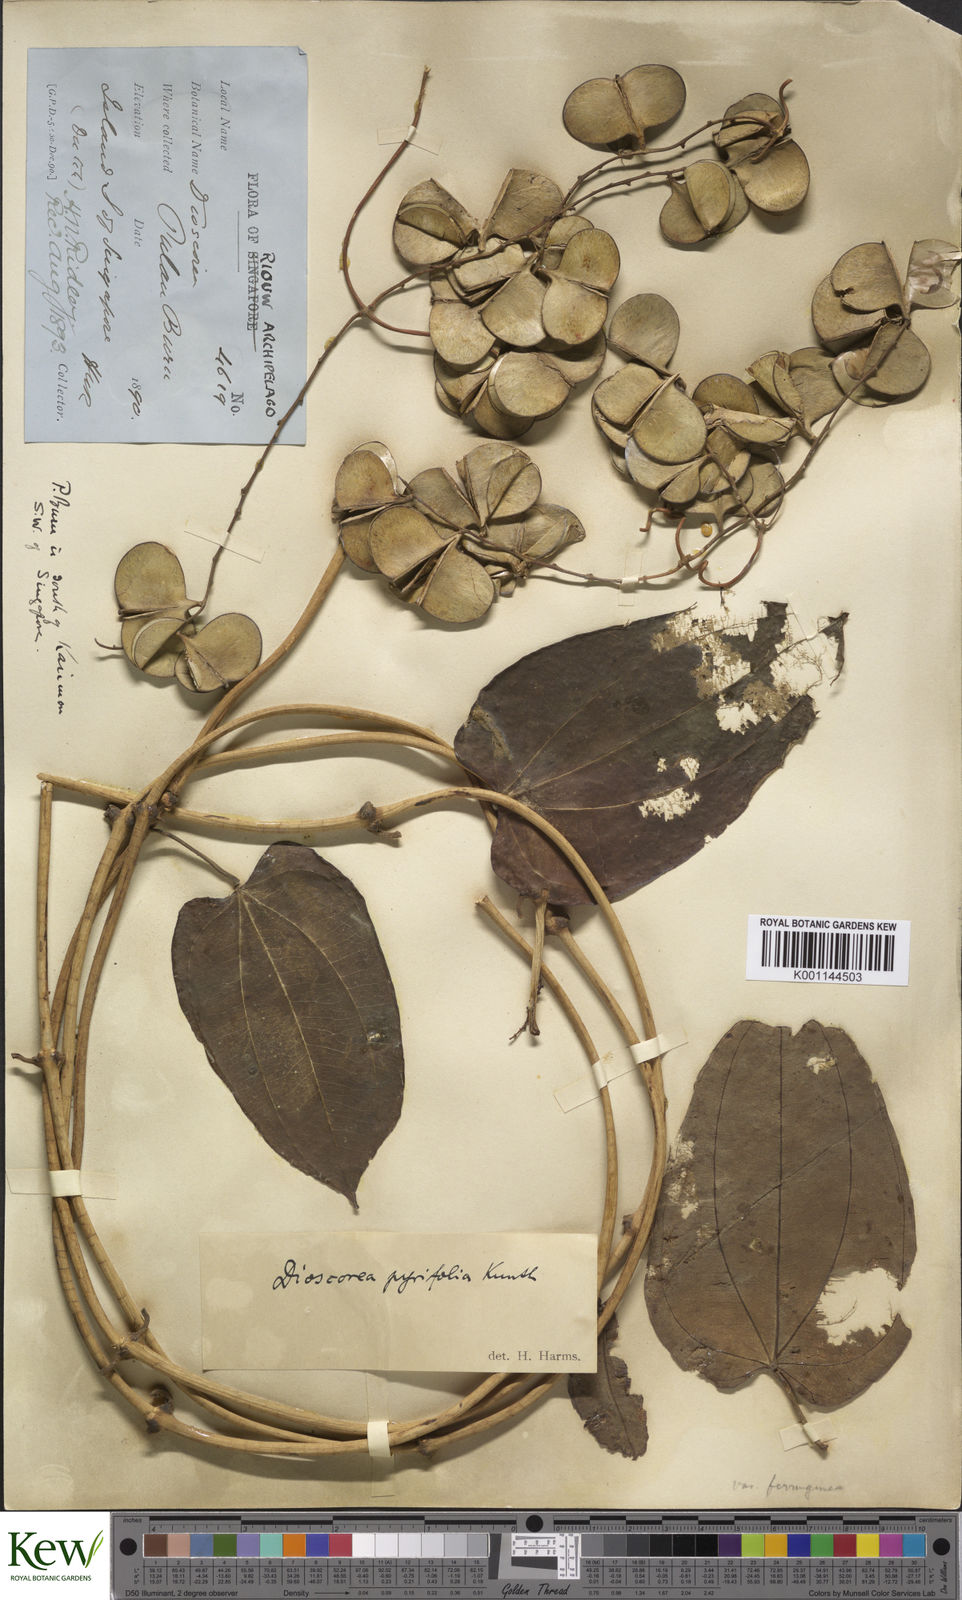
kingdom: Plantae
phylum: Tracheophyta
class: Liliopsida
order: Dioscoreales
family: Dioscoreaceae
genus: Dioscorea
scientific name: Dioscorea pyrifolia
